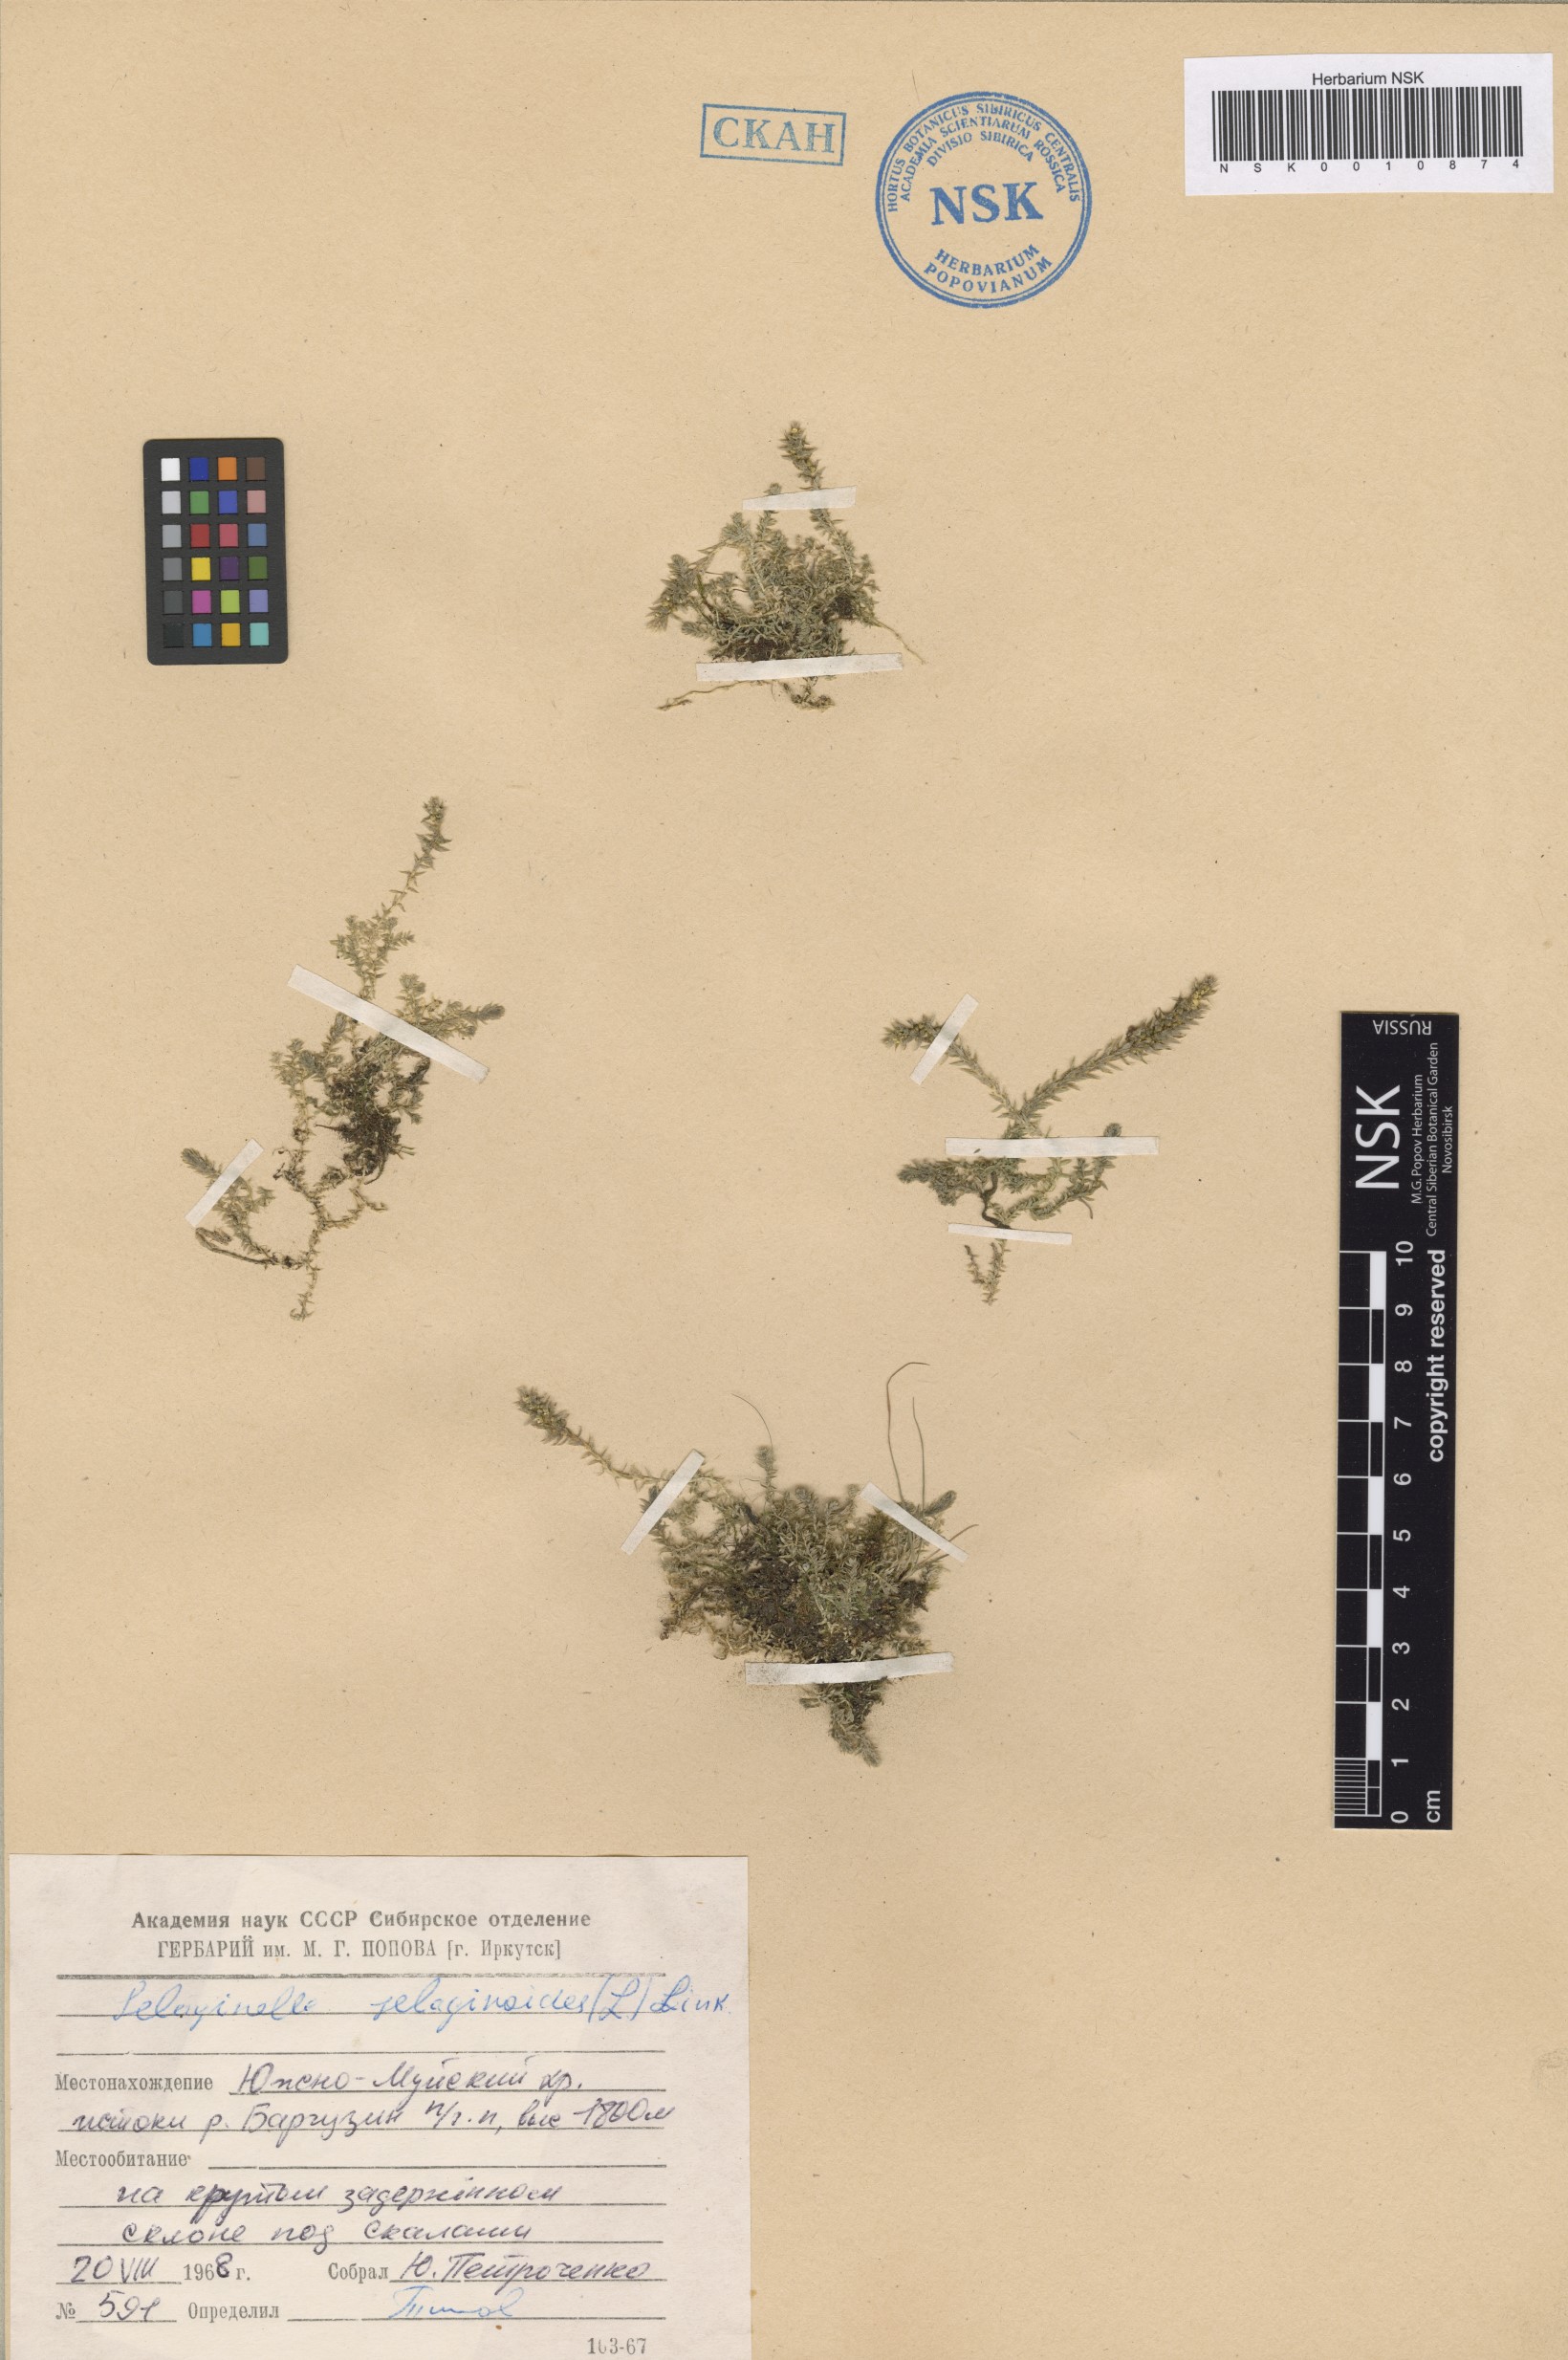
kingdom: Plantae
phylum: Tracheophyta
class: Lycopodiopsida
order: Selaginellales
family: Selaginellaceae
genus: Selaginella
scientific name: Selaginella selaginoides
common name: Prickly mountain-moss
